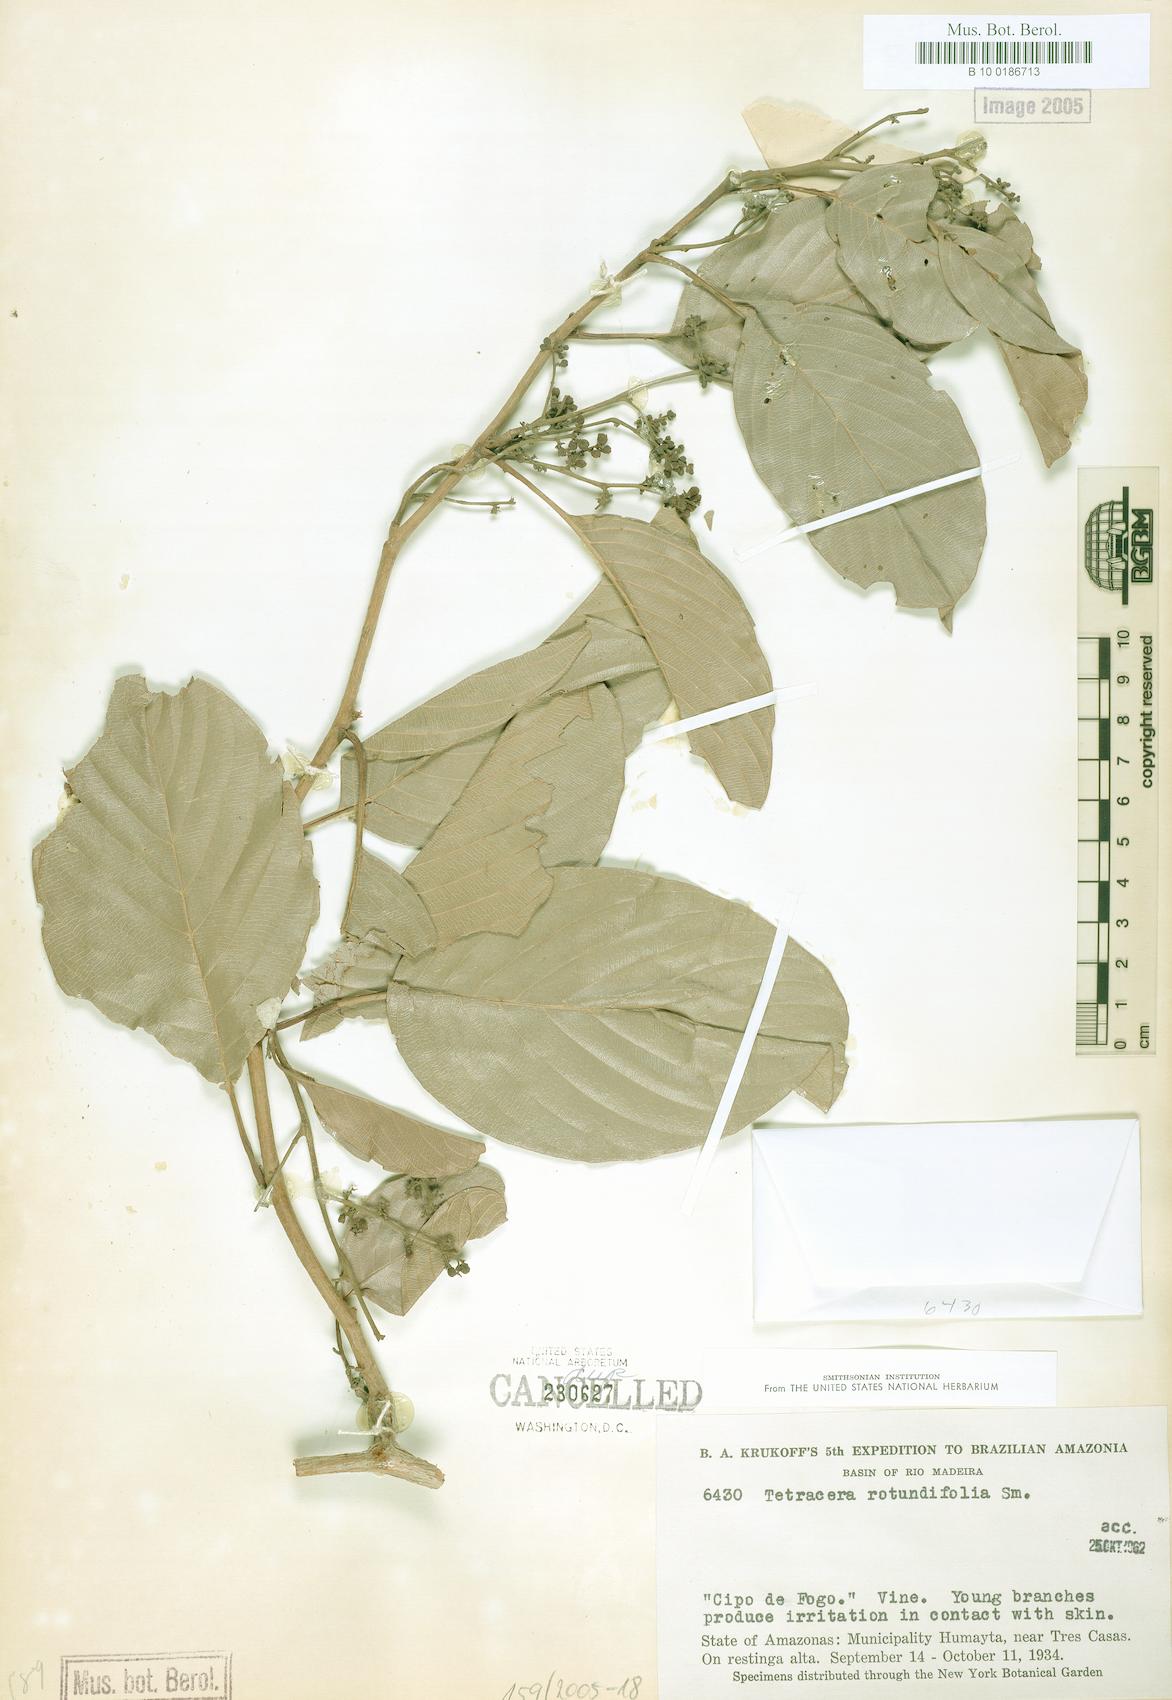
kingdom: Plantae
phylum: Tracheophyta
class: Magnoliopsida
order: Dilleniales
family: Dilleniaceae
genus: Tetracera
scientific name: Tetracera rotundifolia
